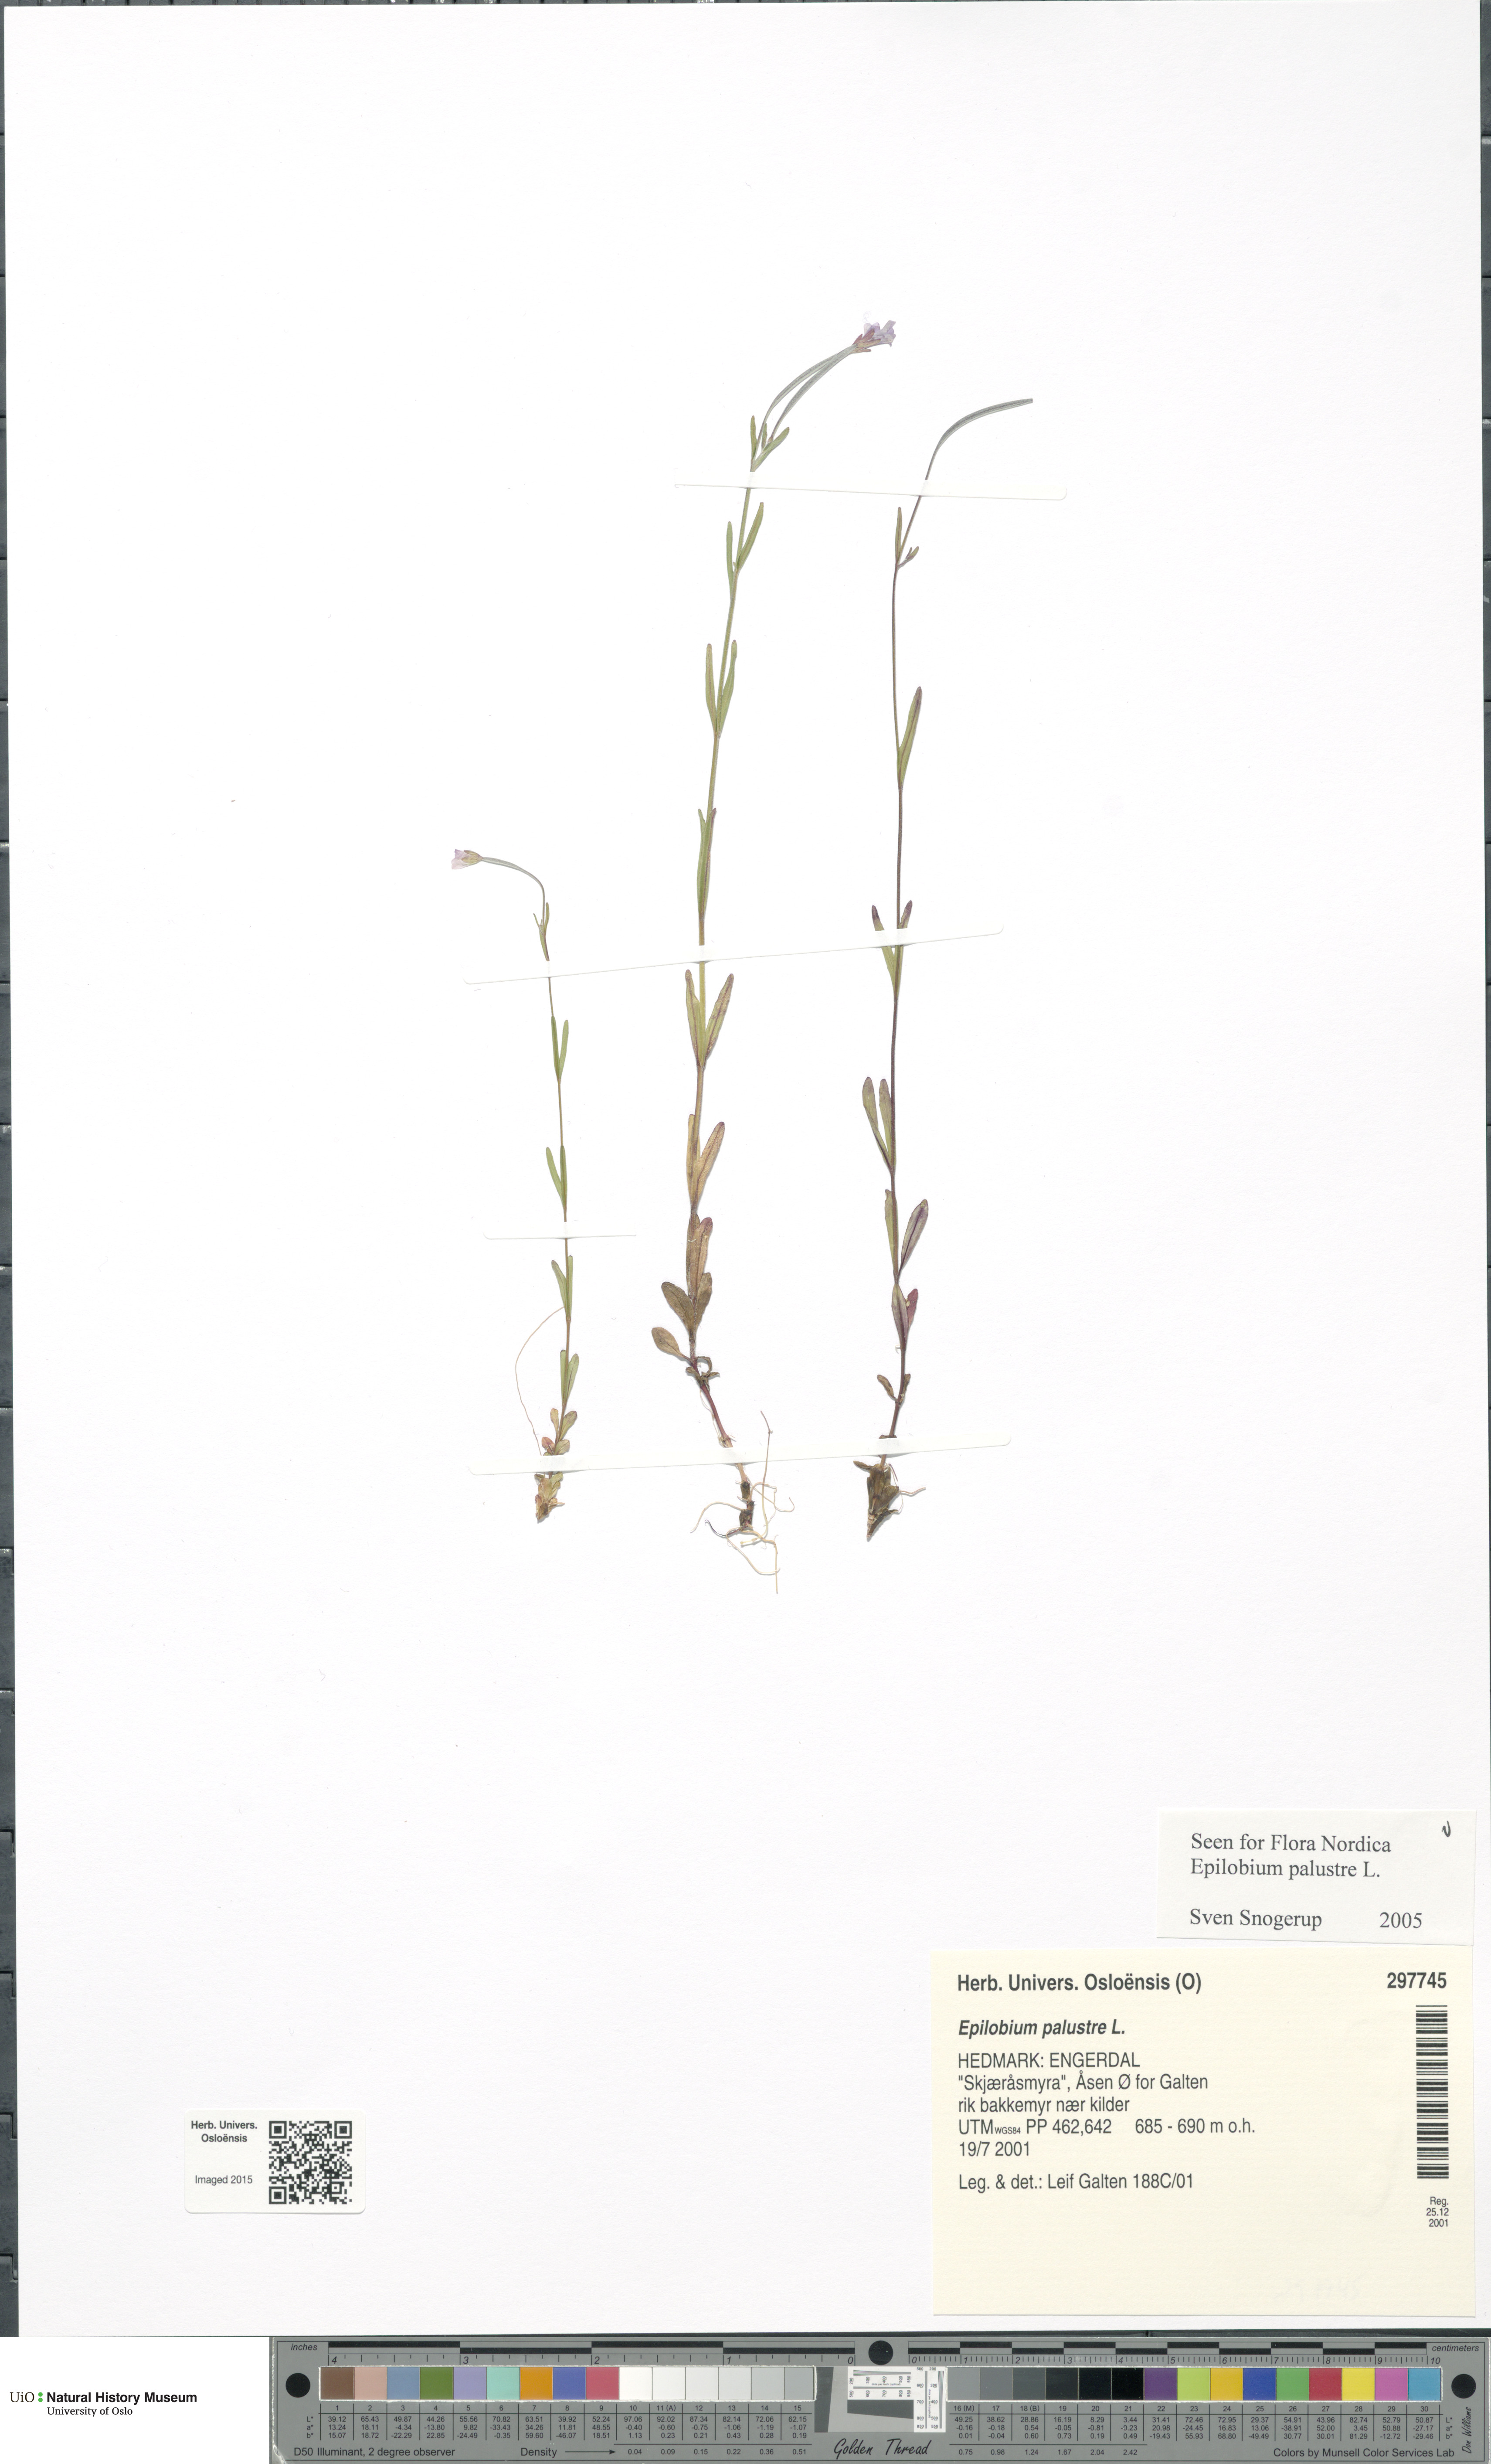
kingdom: Plantae
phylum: Tracheophyta
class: Magnoliopsida
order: Myrtales
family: Onagraceae
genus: Epilobium
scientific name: Epilobium palustre
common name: Marsh willowherb
